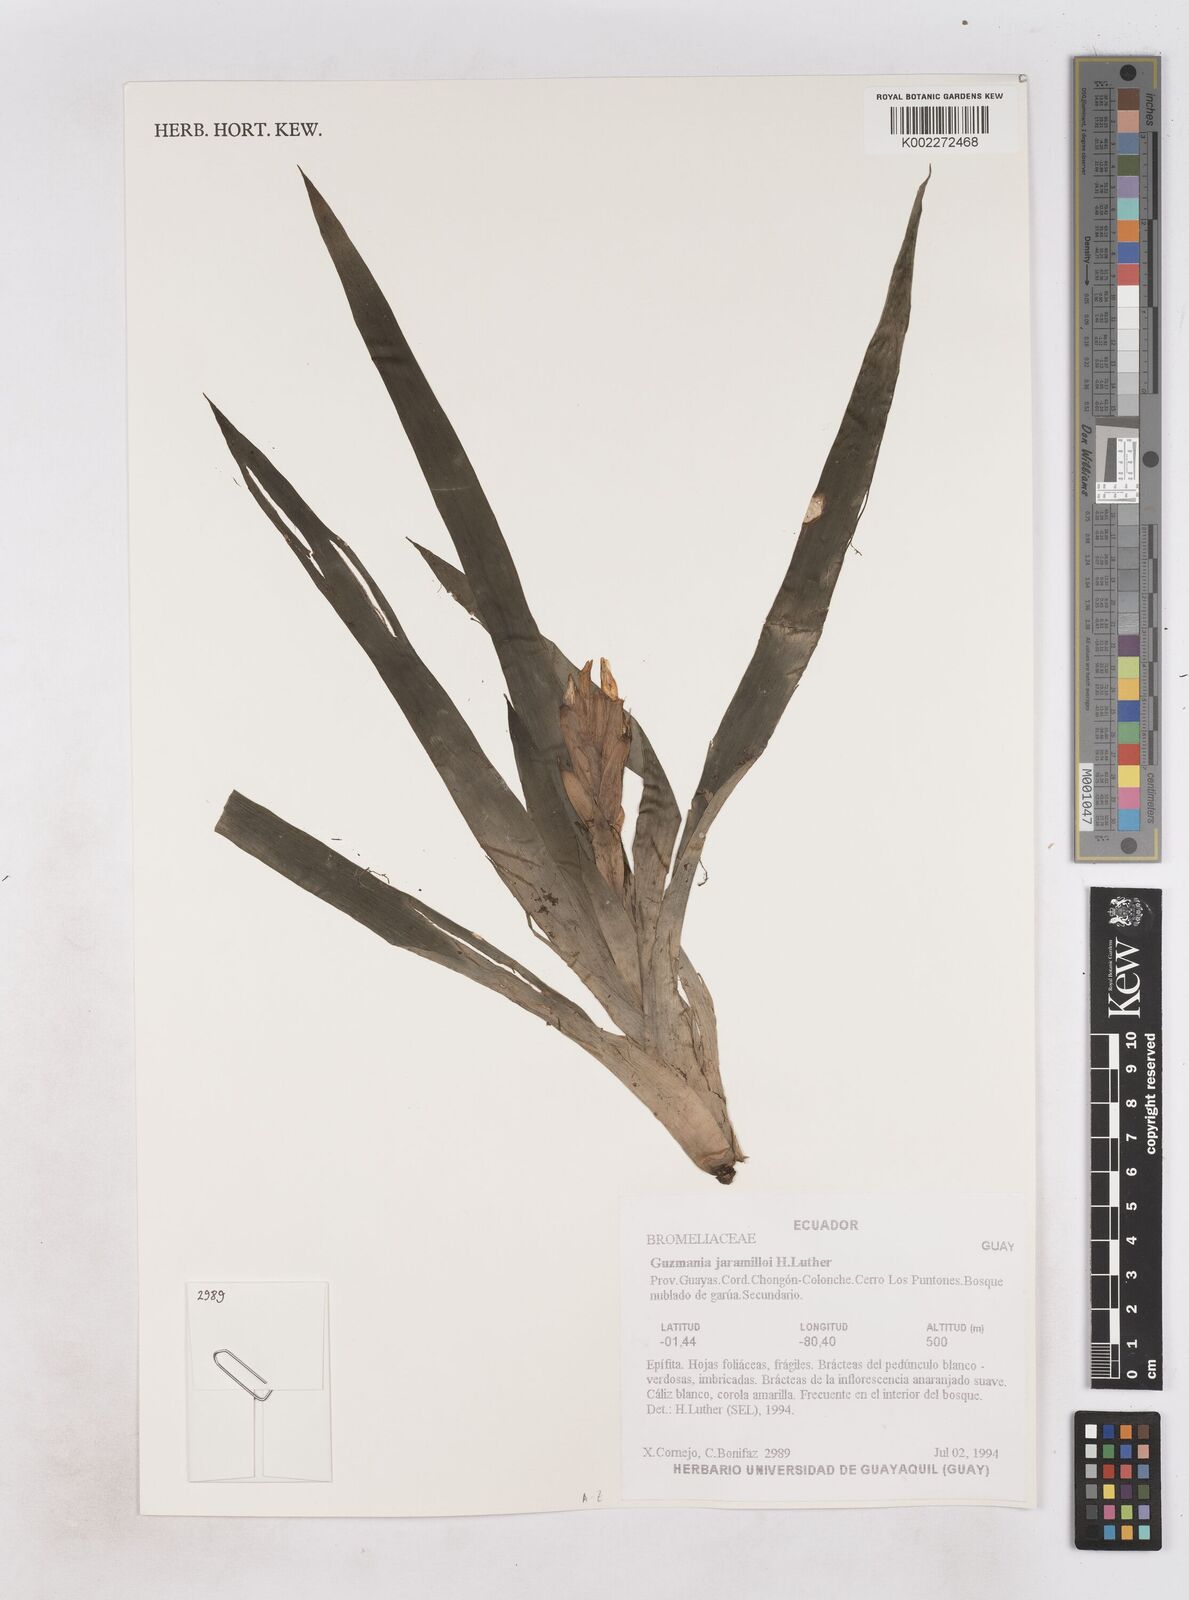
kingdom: Plantae
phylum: Tracheophyta
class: Liliopsida
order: Poales
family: Bromeliaceae
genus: Guzmania
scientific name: Guzmania jaramilloi
